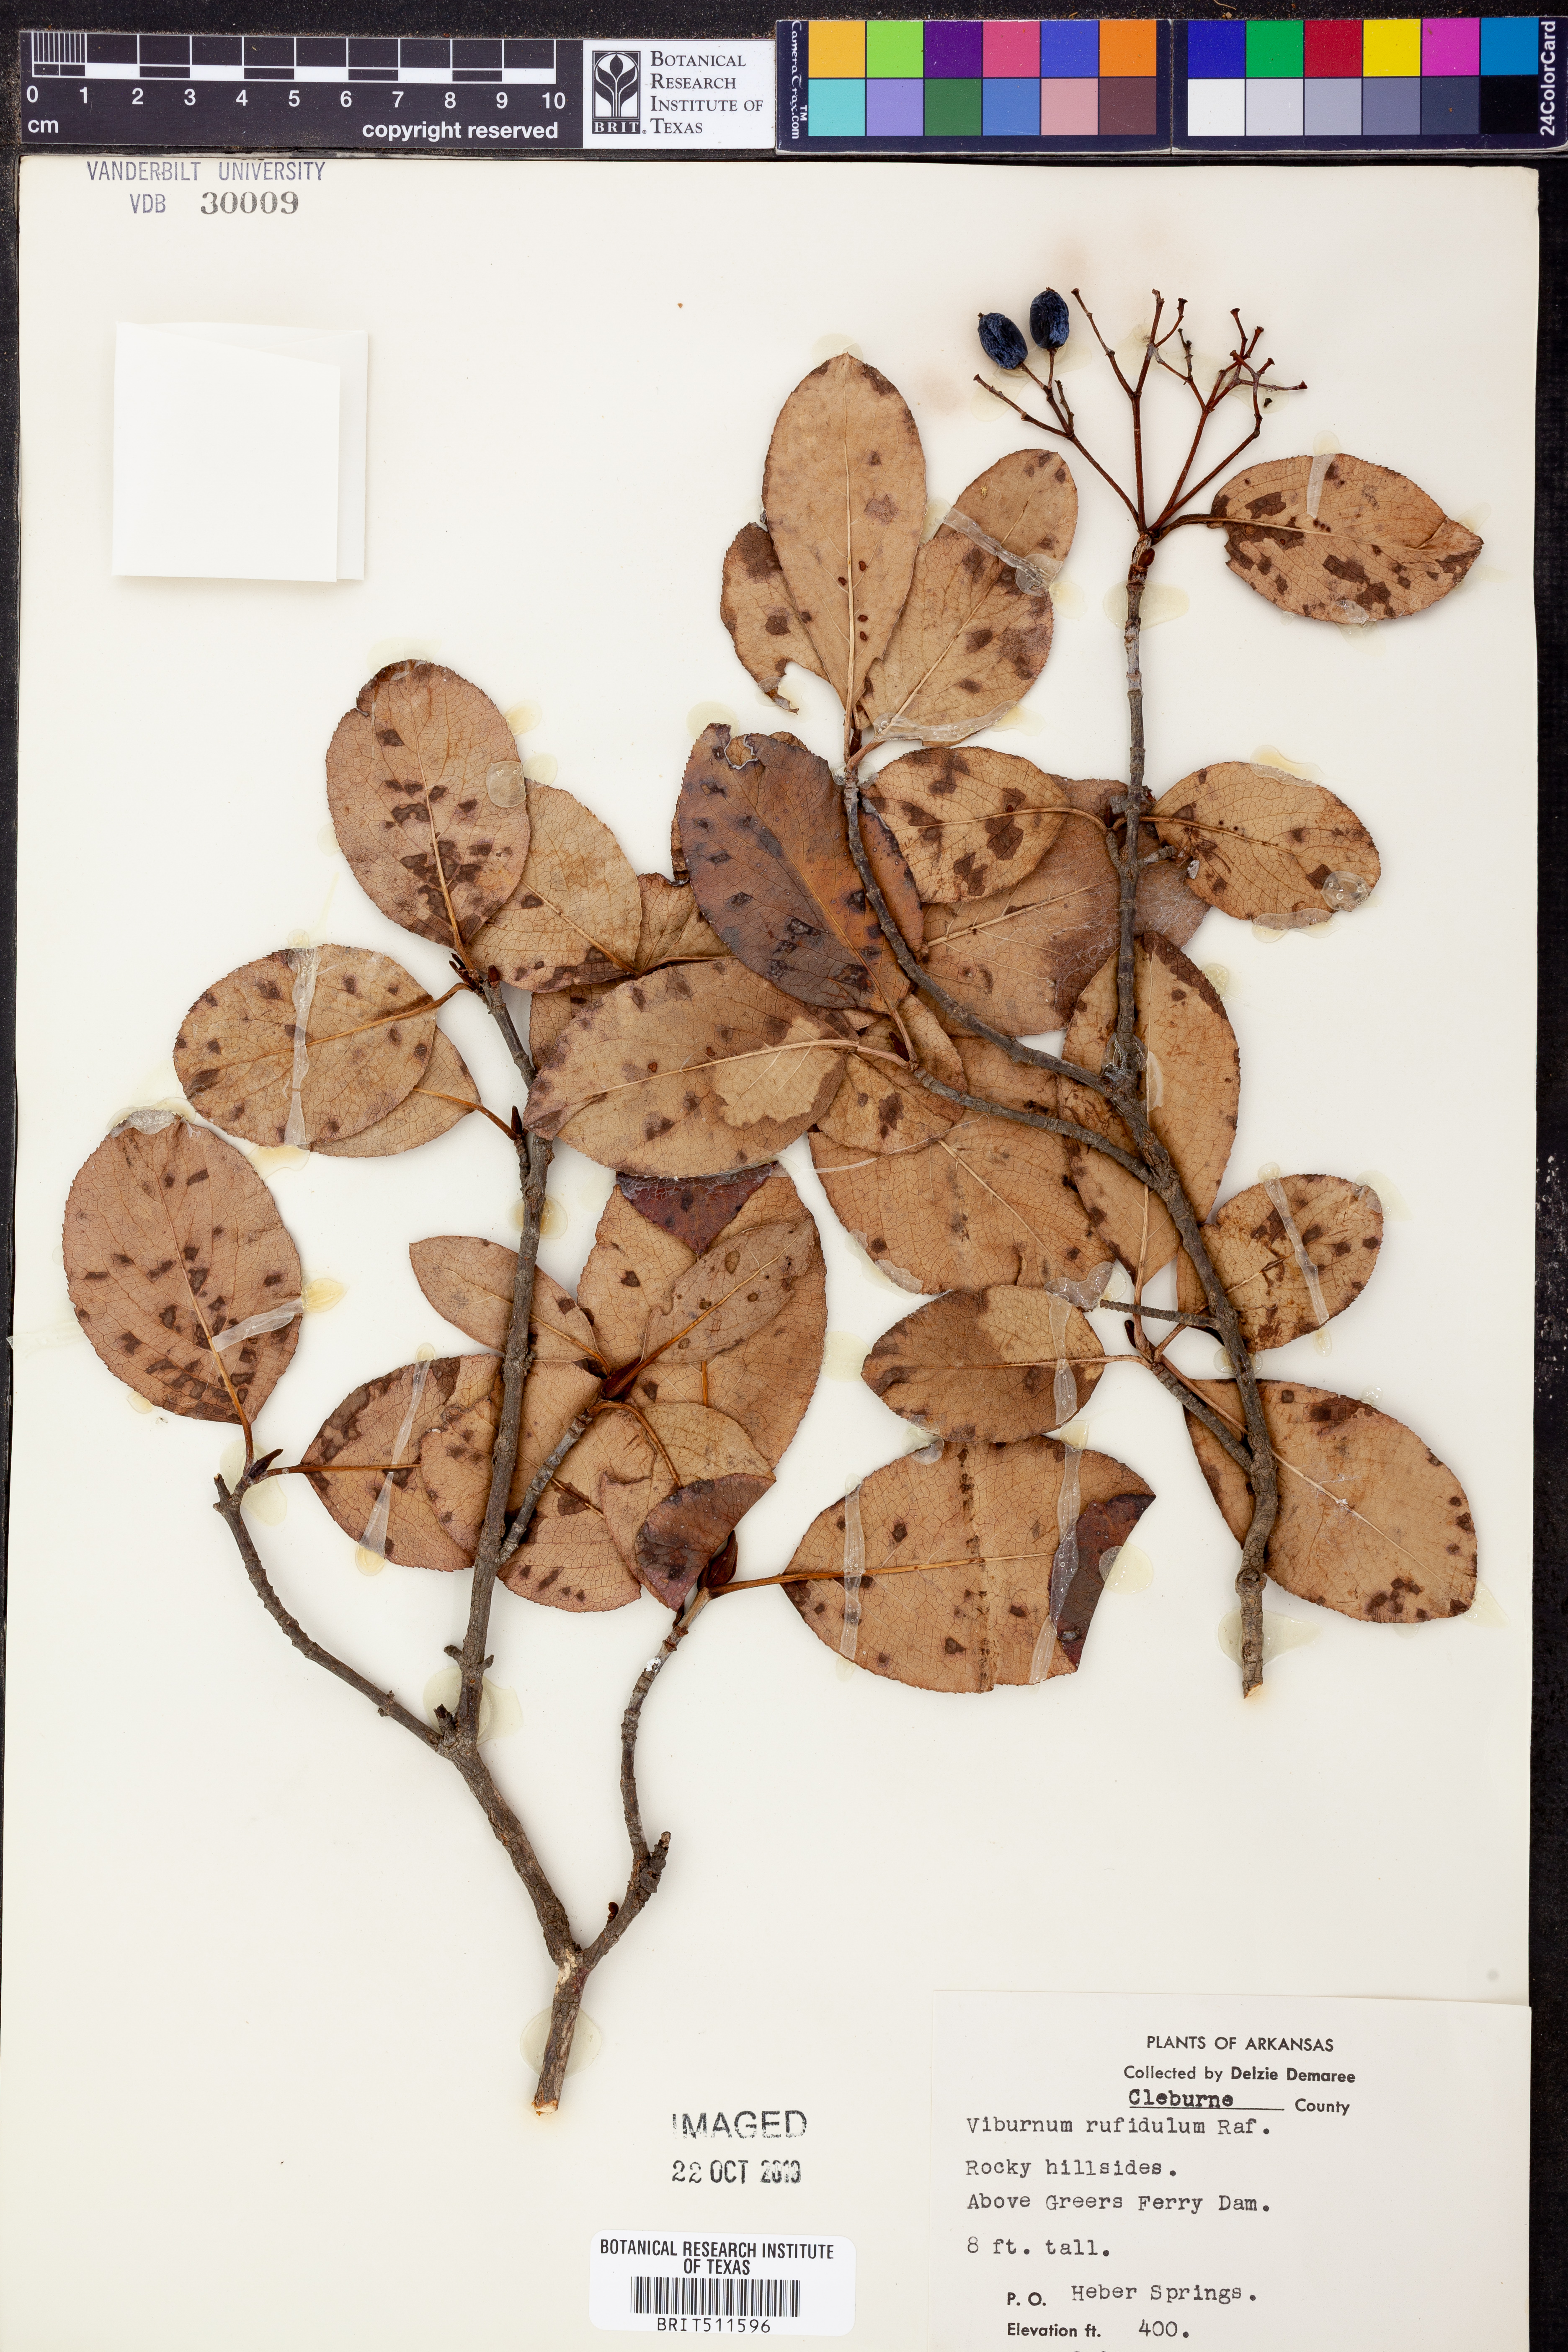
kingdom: Plantae
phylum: Tracheophyta
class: Magnoliopsida
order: Dipsacales
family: Viburnaceae
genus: Viburnum
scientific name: Viburnum rufidulum
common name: Blue haw
